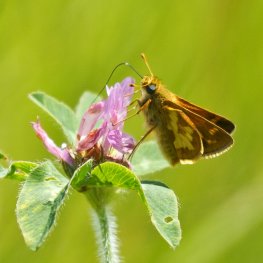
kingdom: Animalia
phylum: Arthropoda
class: Insecta
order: Lepidoptera
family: Hesperiidae
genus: Polites
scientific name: Polites coras
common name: Peck's Skipper
